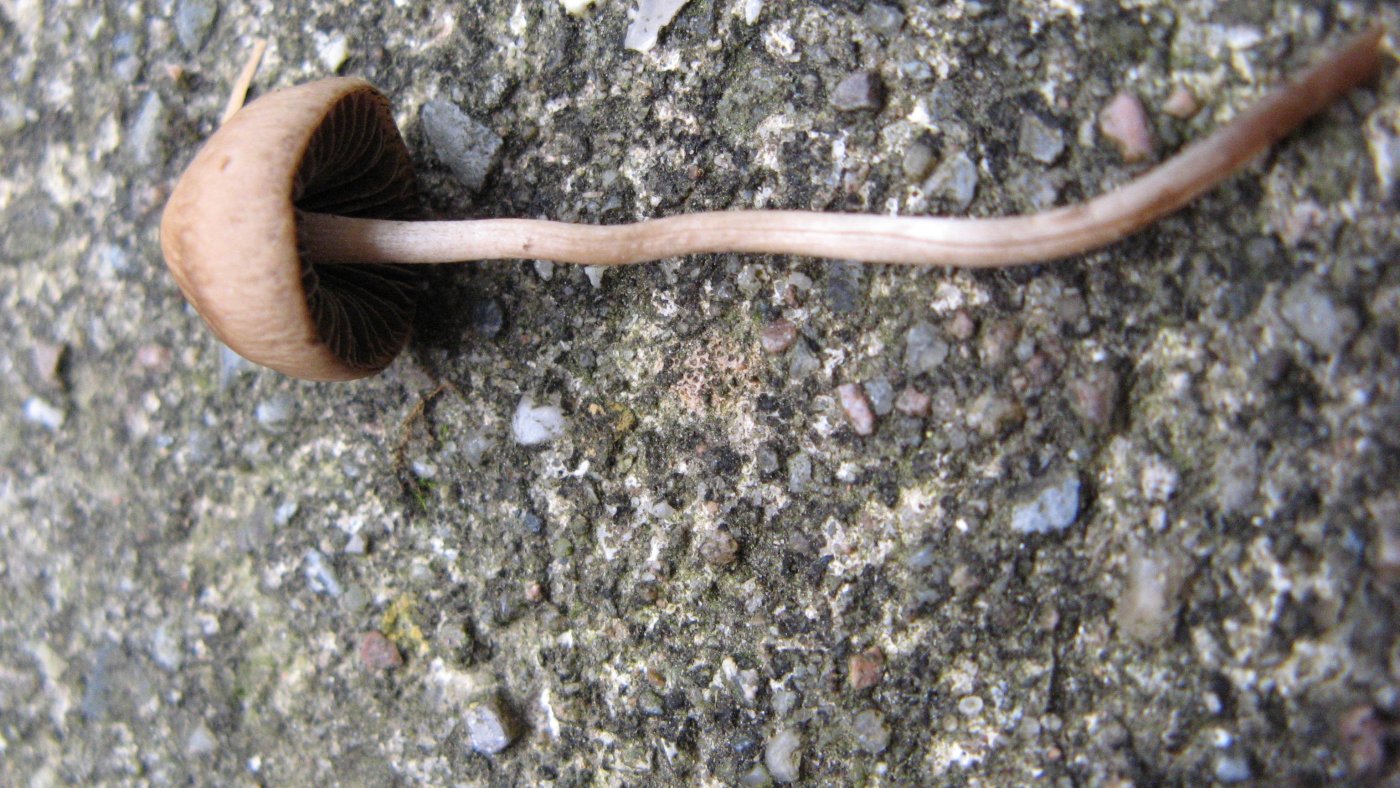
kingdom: Fungi
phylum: Basidiomycota
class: Agaricomycetes
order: Agaricales
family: Bolbitiaceae
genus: Panaeolina
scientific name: Panaeolina foenisecii
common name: høslætsvamp
